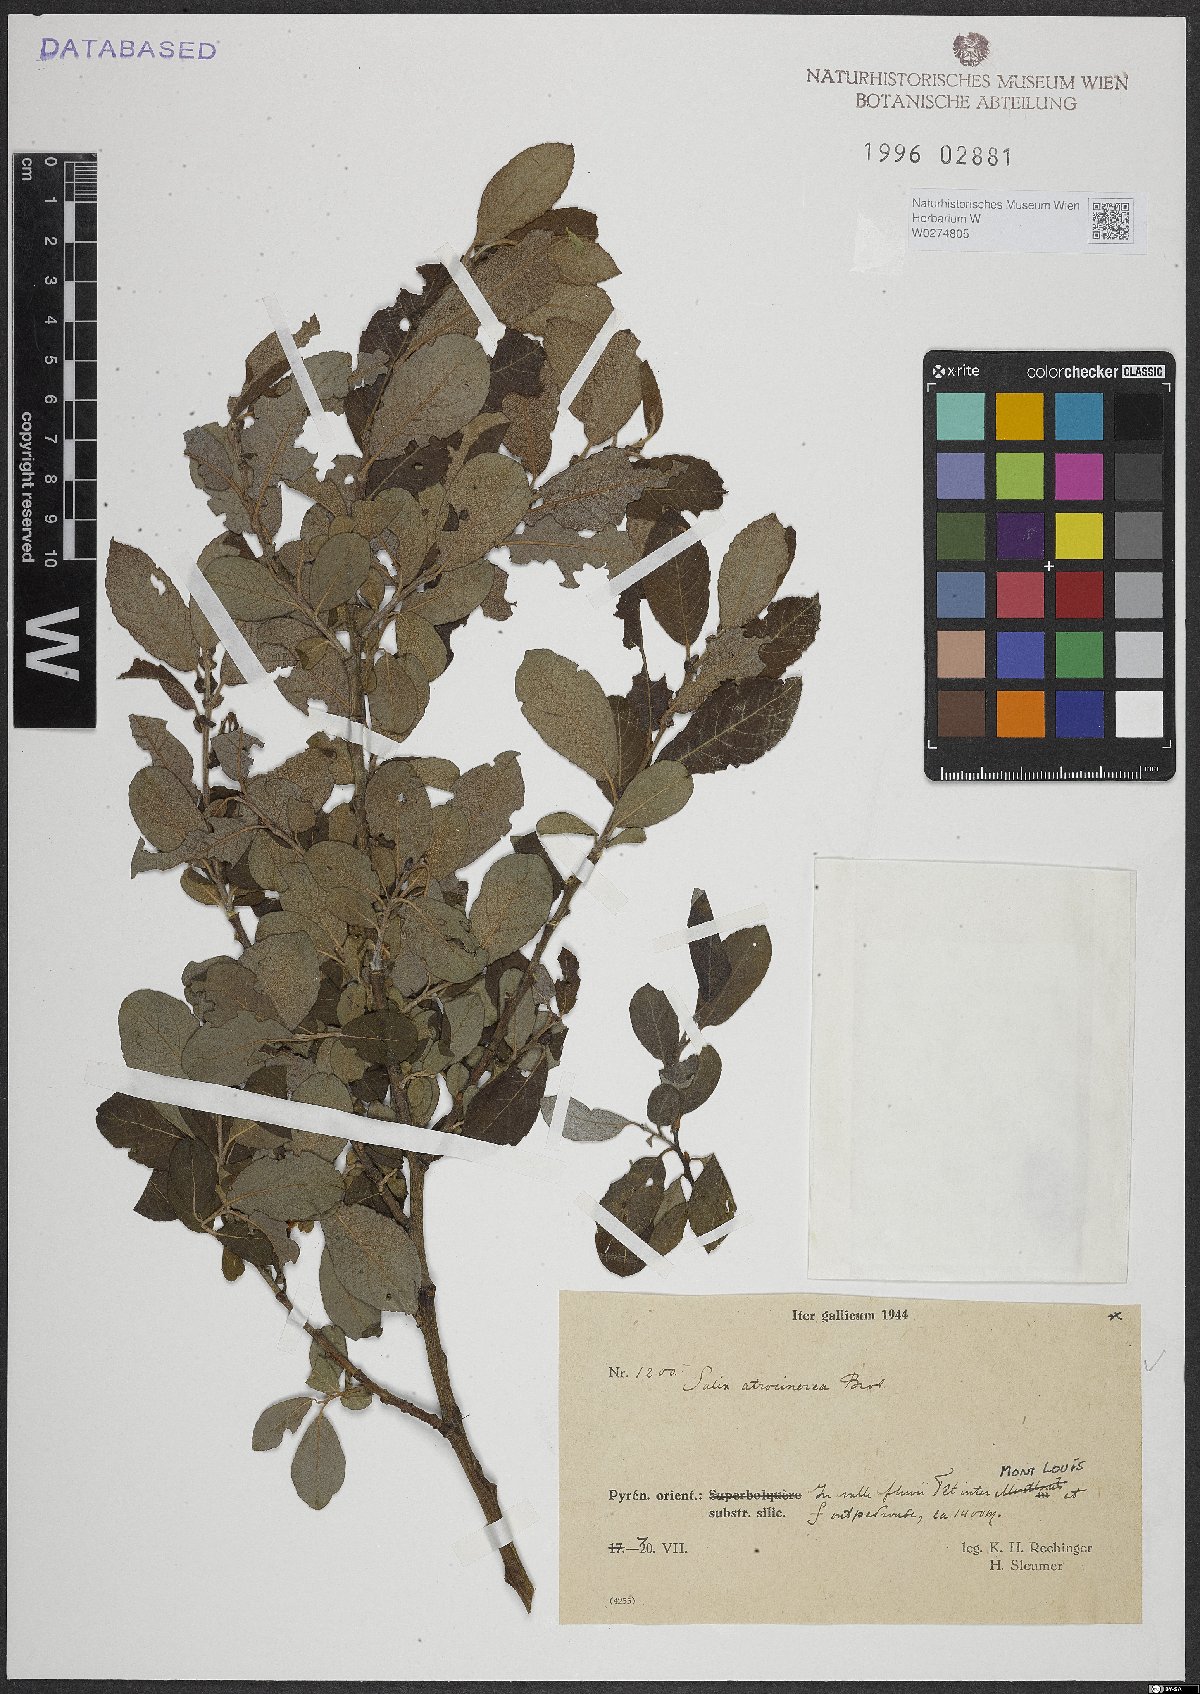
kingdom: Plantae
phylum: Tracheophyta
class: Magnoliopsida
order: Malpighiales
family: Salicaceae
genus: Salix
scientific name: Salix atrocinerea
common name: Rusty willow
